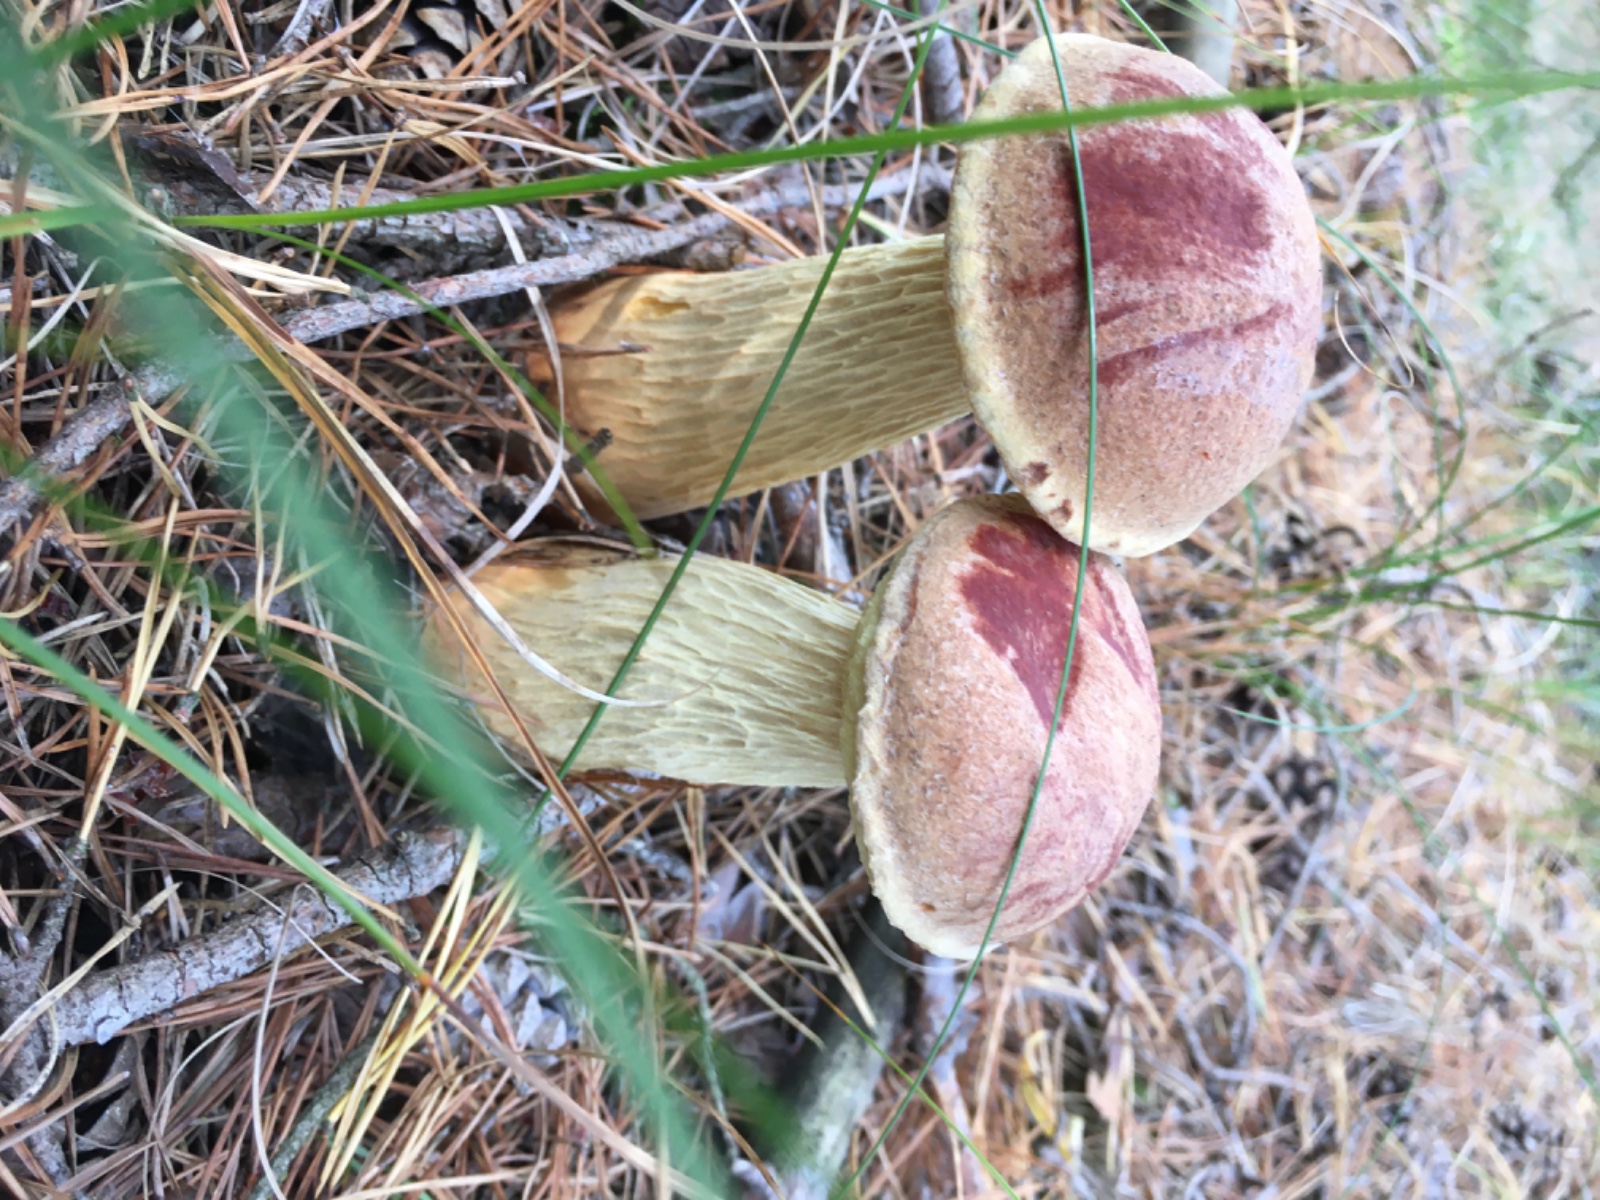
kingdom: Fungi
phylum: Basidiomycota
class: Agaricomycetes
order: Boletales
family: Boletaceae
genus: Aureoboletus
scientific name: Aureoboletus projectellus
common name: ribbestokket rørhat
